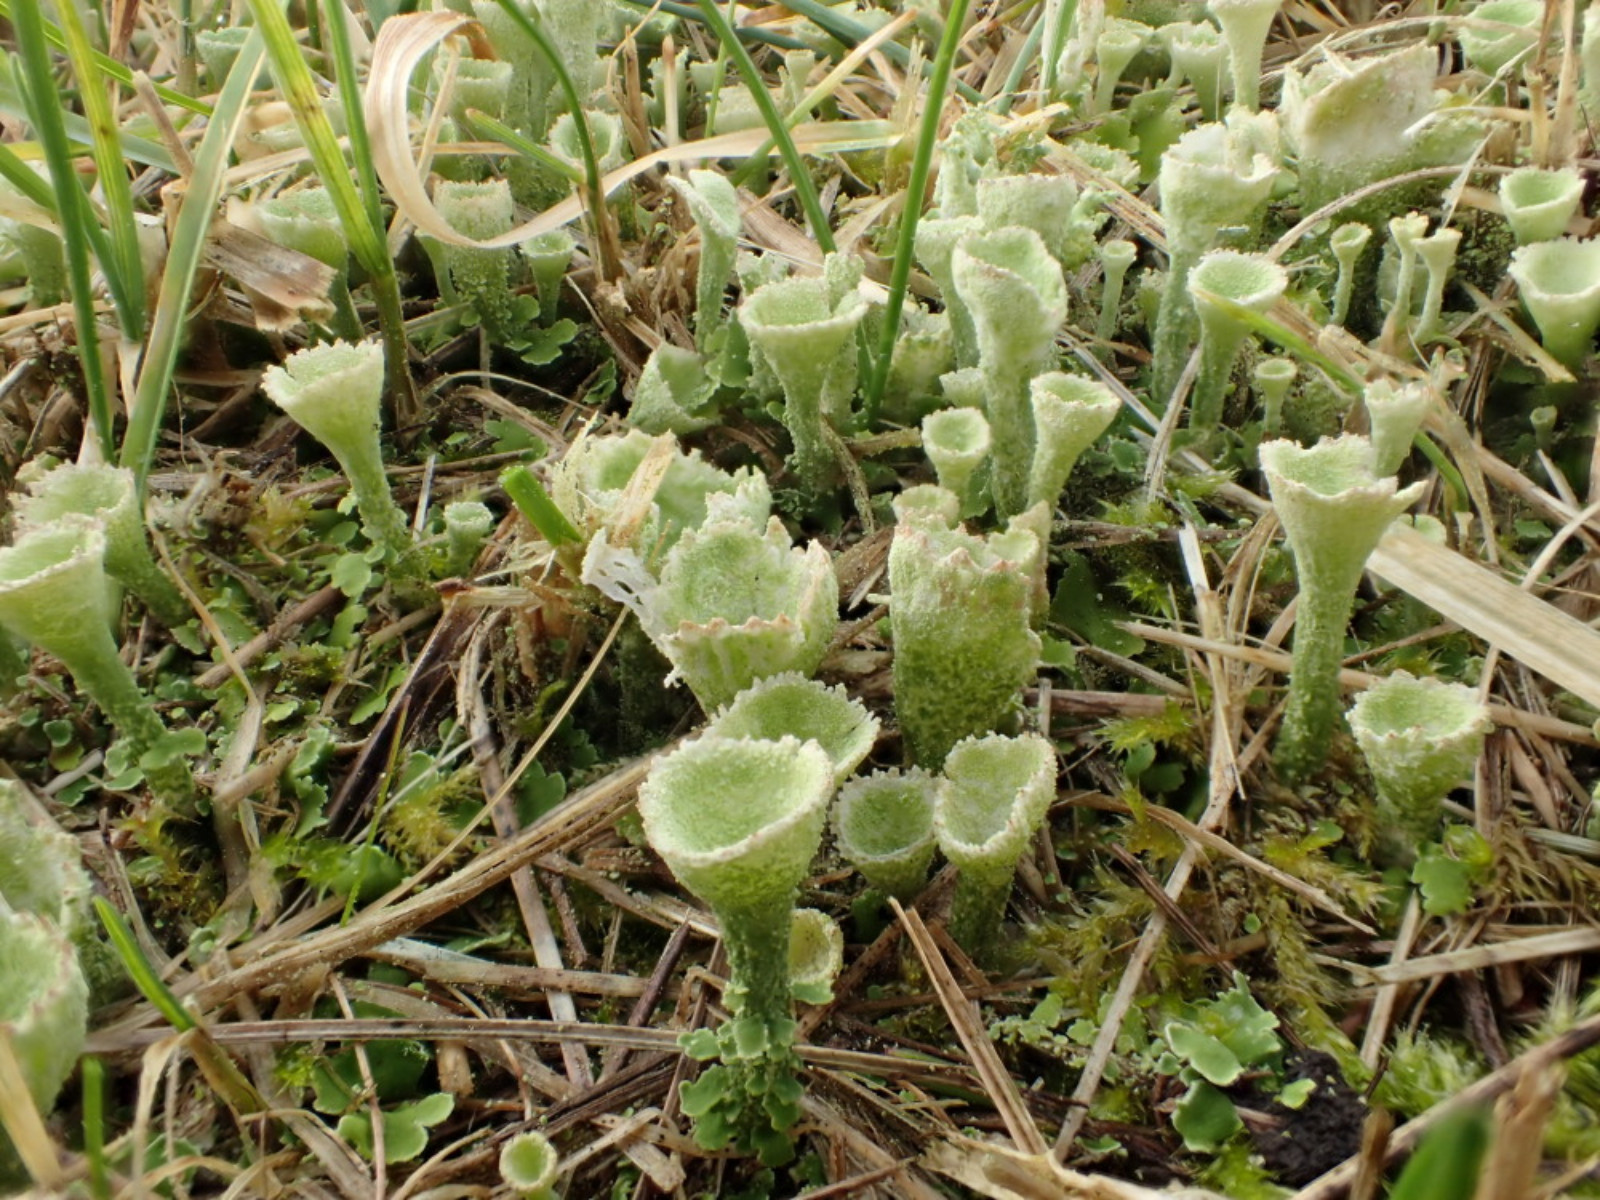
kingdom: Fungi
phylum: Ascomycota
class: Lecanoromycetes
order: Lecanorales
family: Cladoniaceae
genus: Cladonia
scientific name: Cladonia humilis
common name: lav bægerlav
